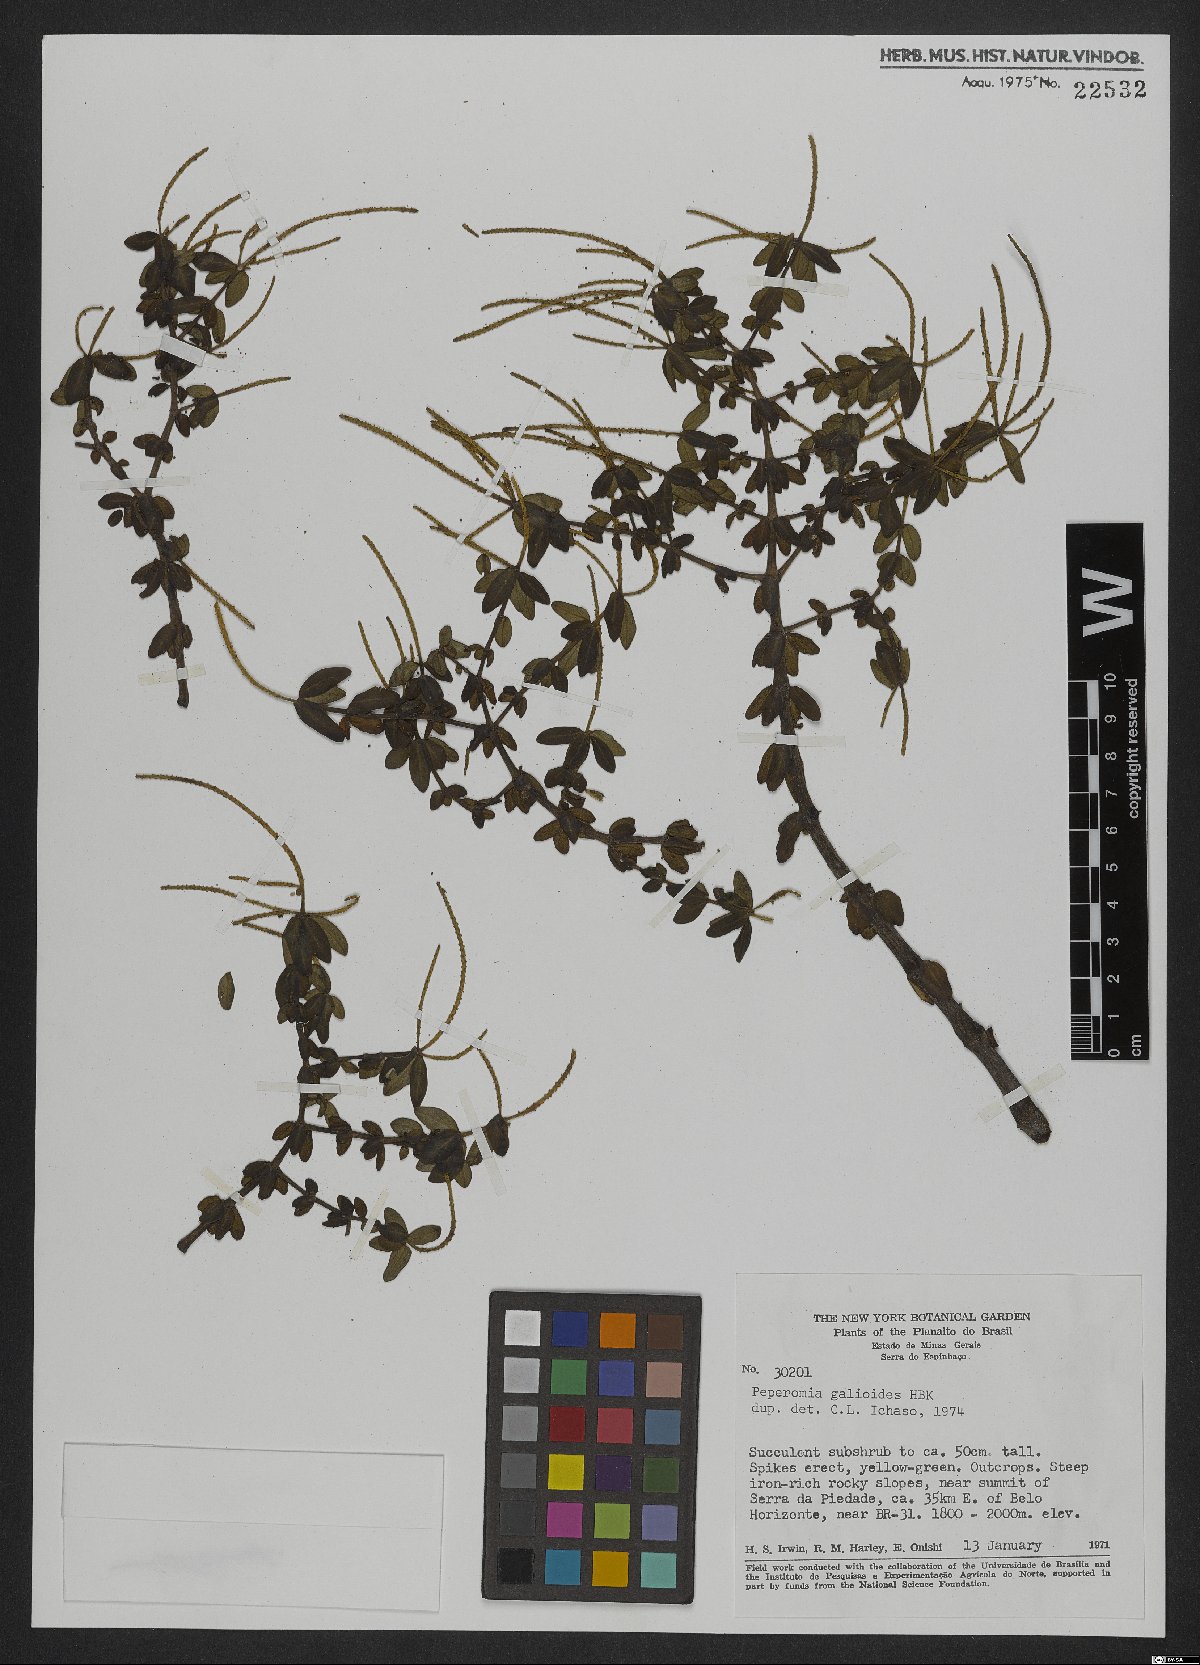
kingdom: Plantae
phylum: Tracheophyta
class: Magnoliopsida
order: Piperales
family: Piperaceae
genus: Peperomia
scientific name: Peperomia galioides
